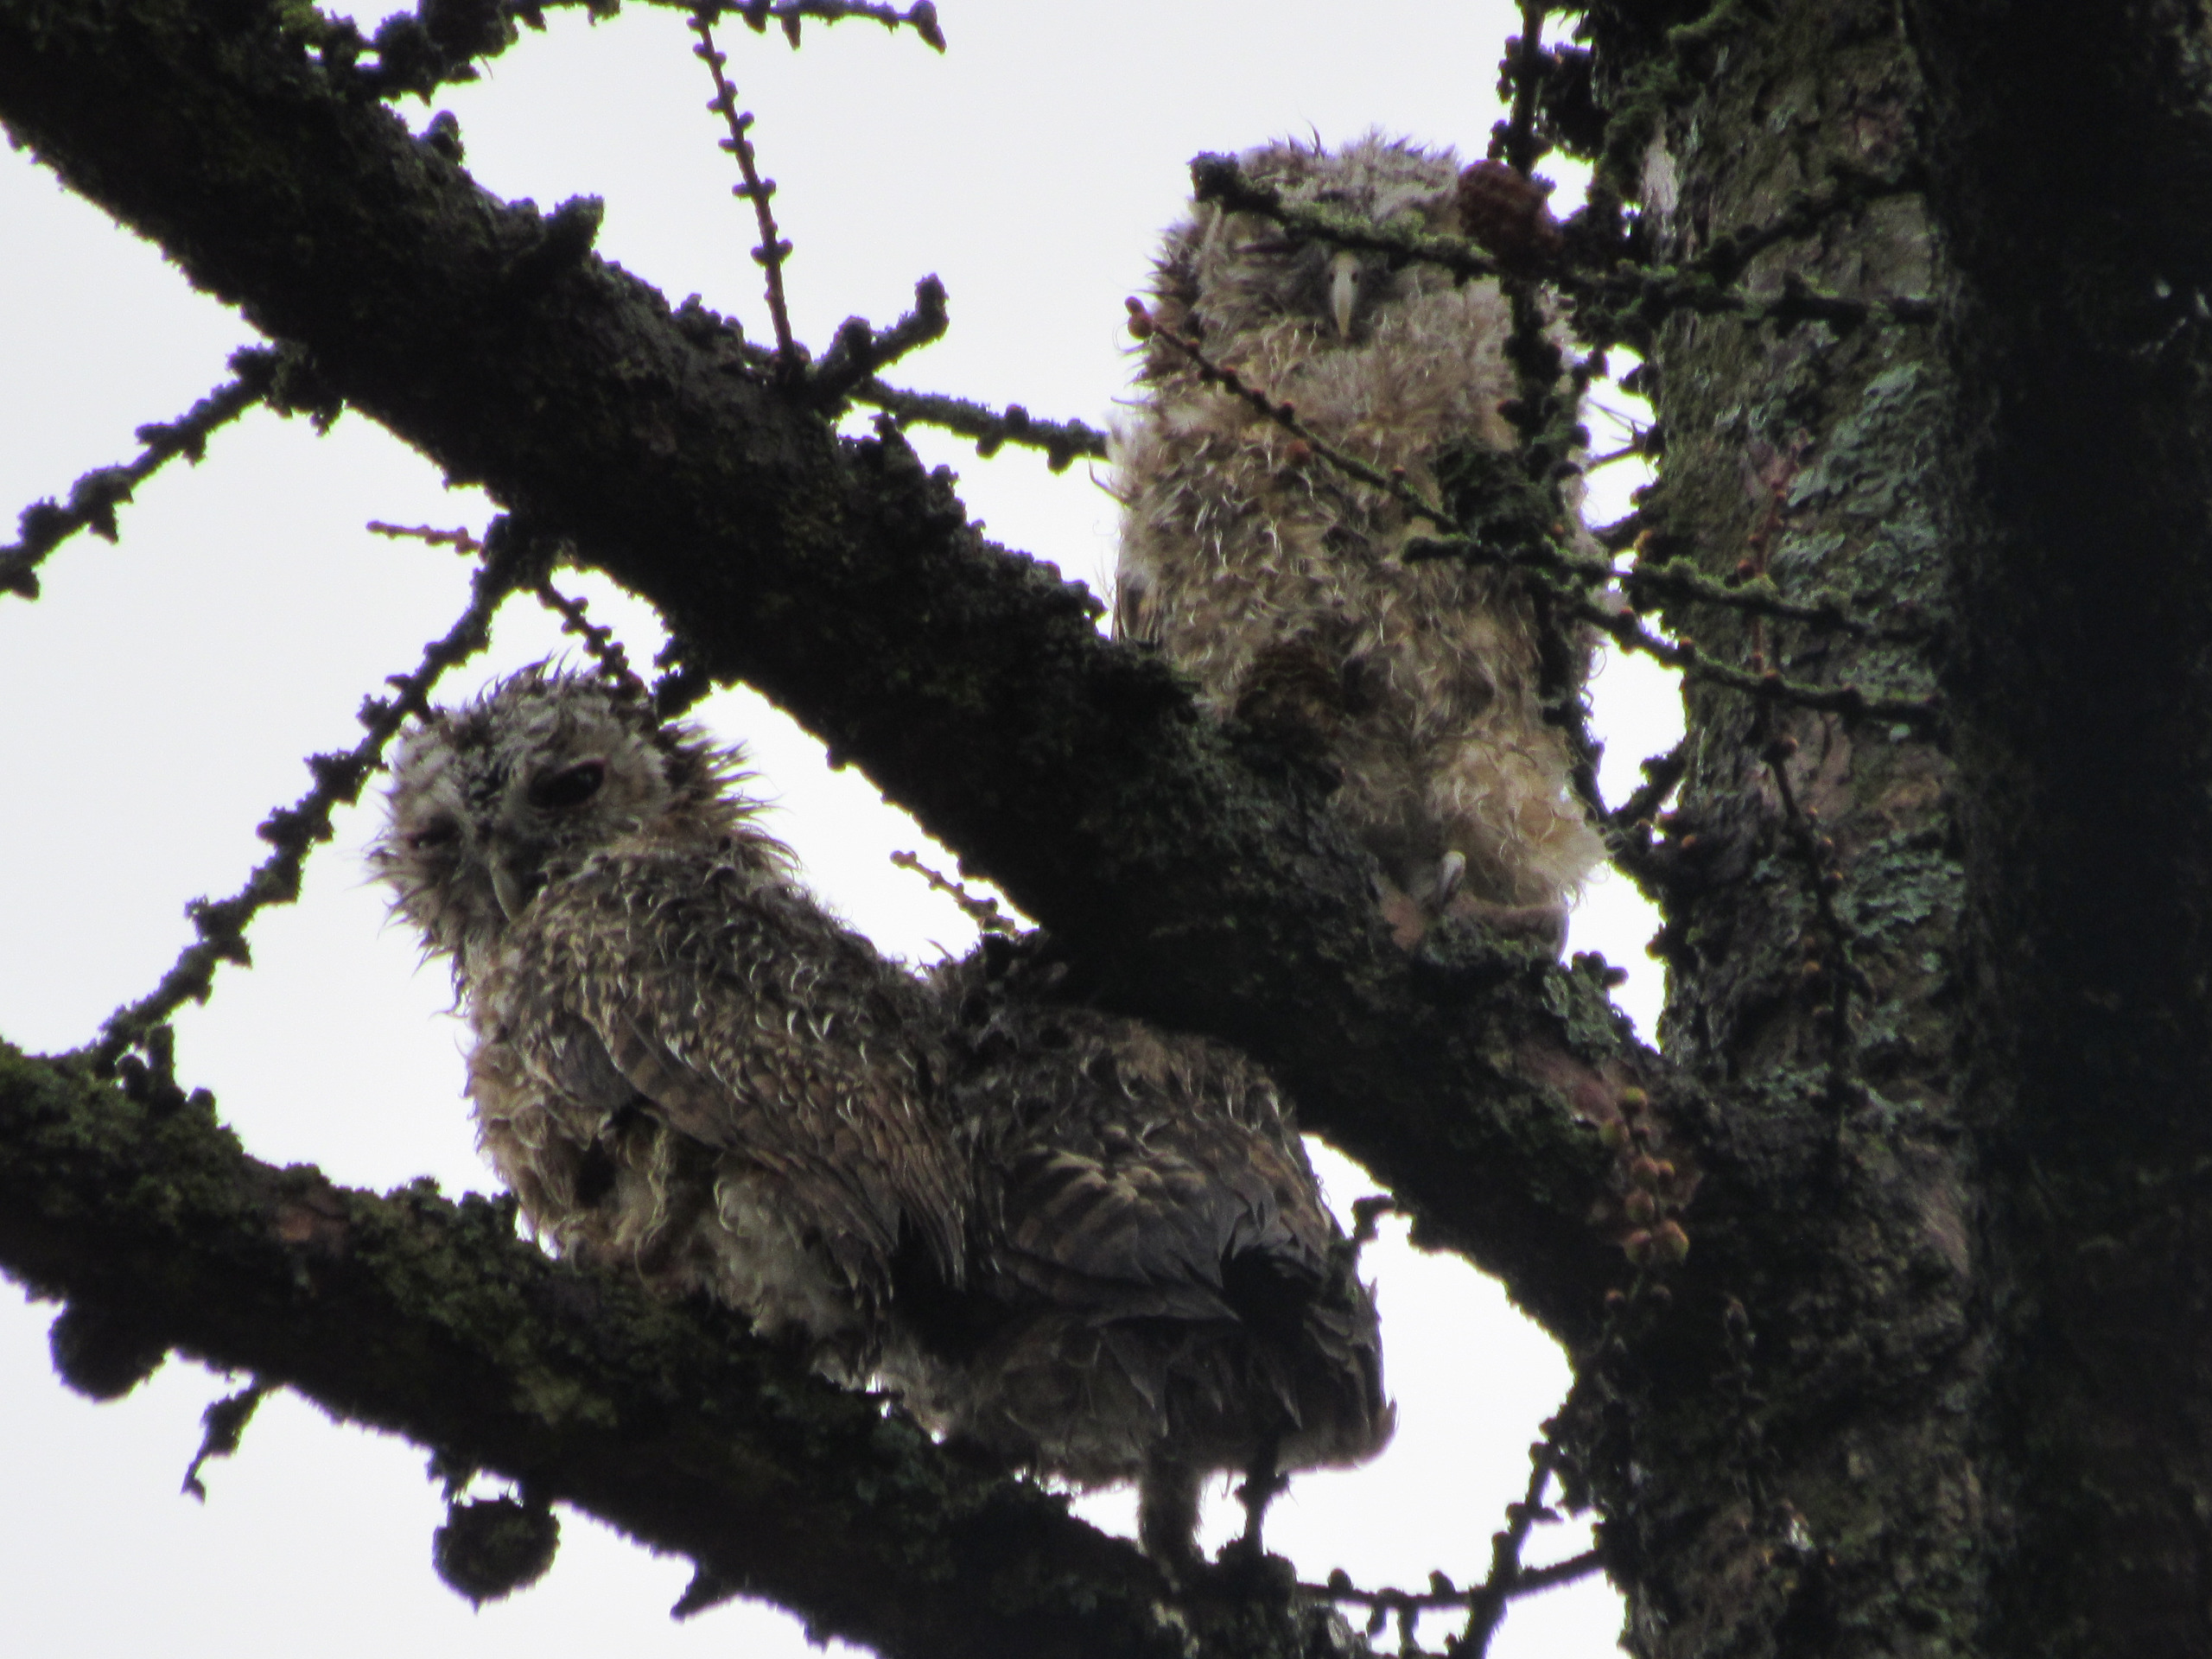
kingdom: Animalia
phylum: Chordata
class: Aves
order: Strigiformes
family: Strigidae
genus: Strix
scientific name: Strix aluco
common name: Natugle
